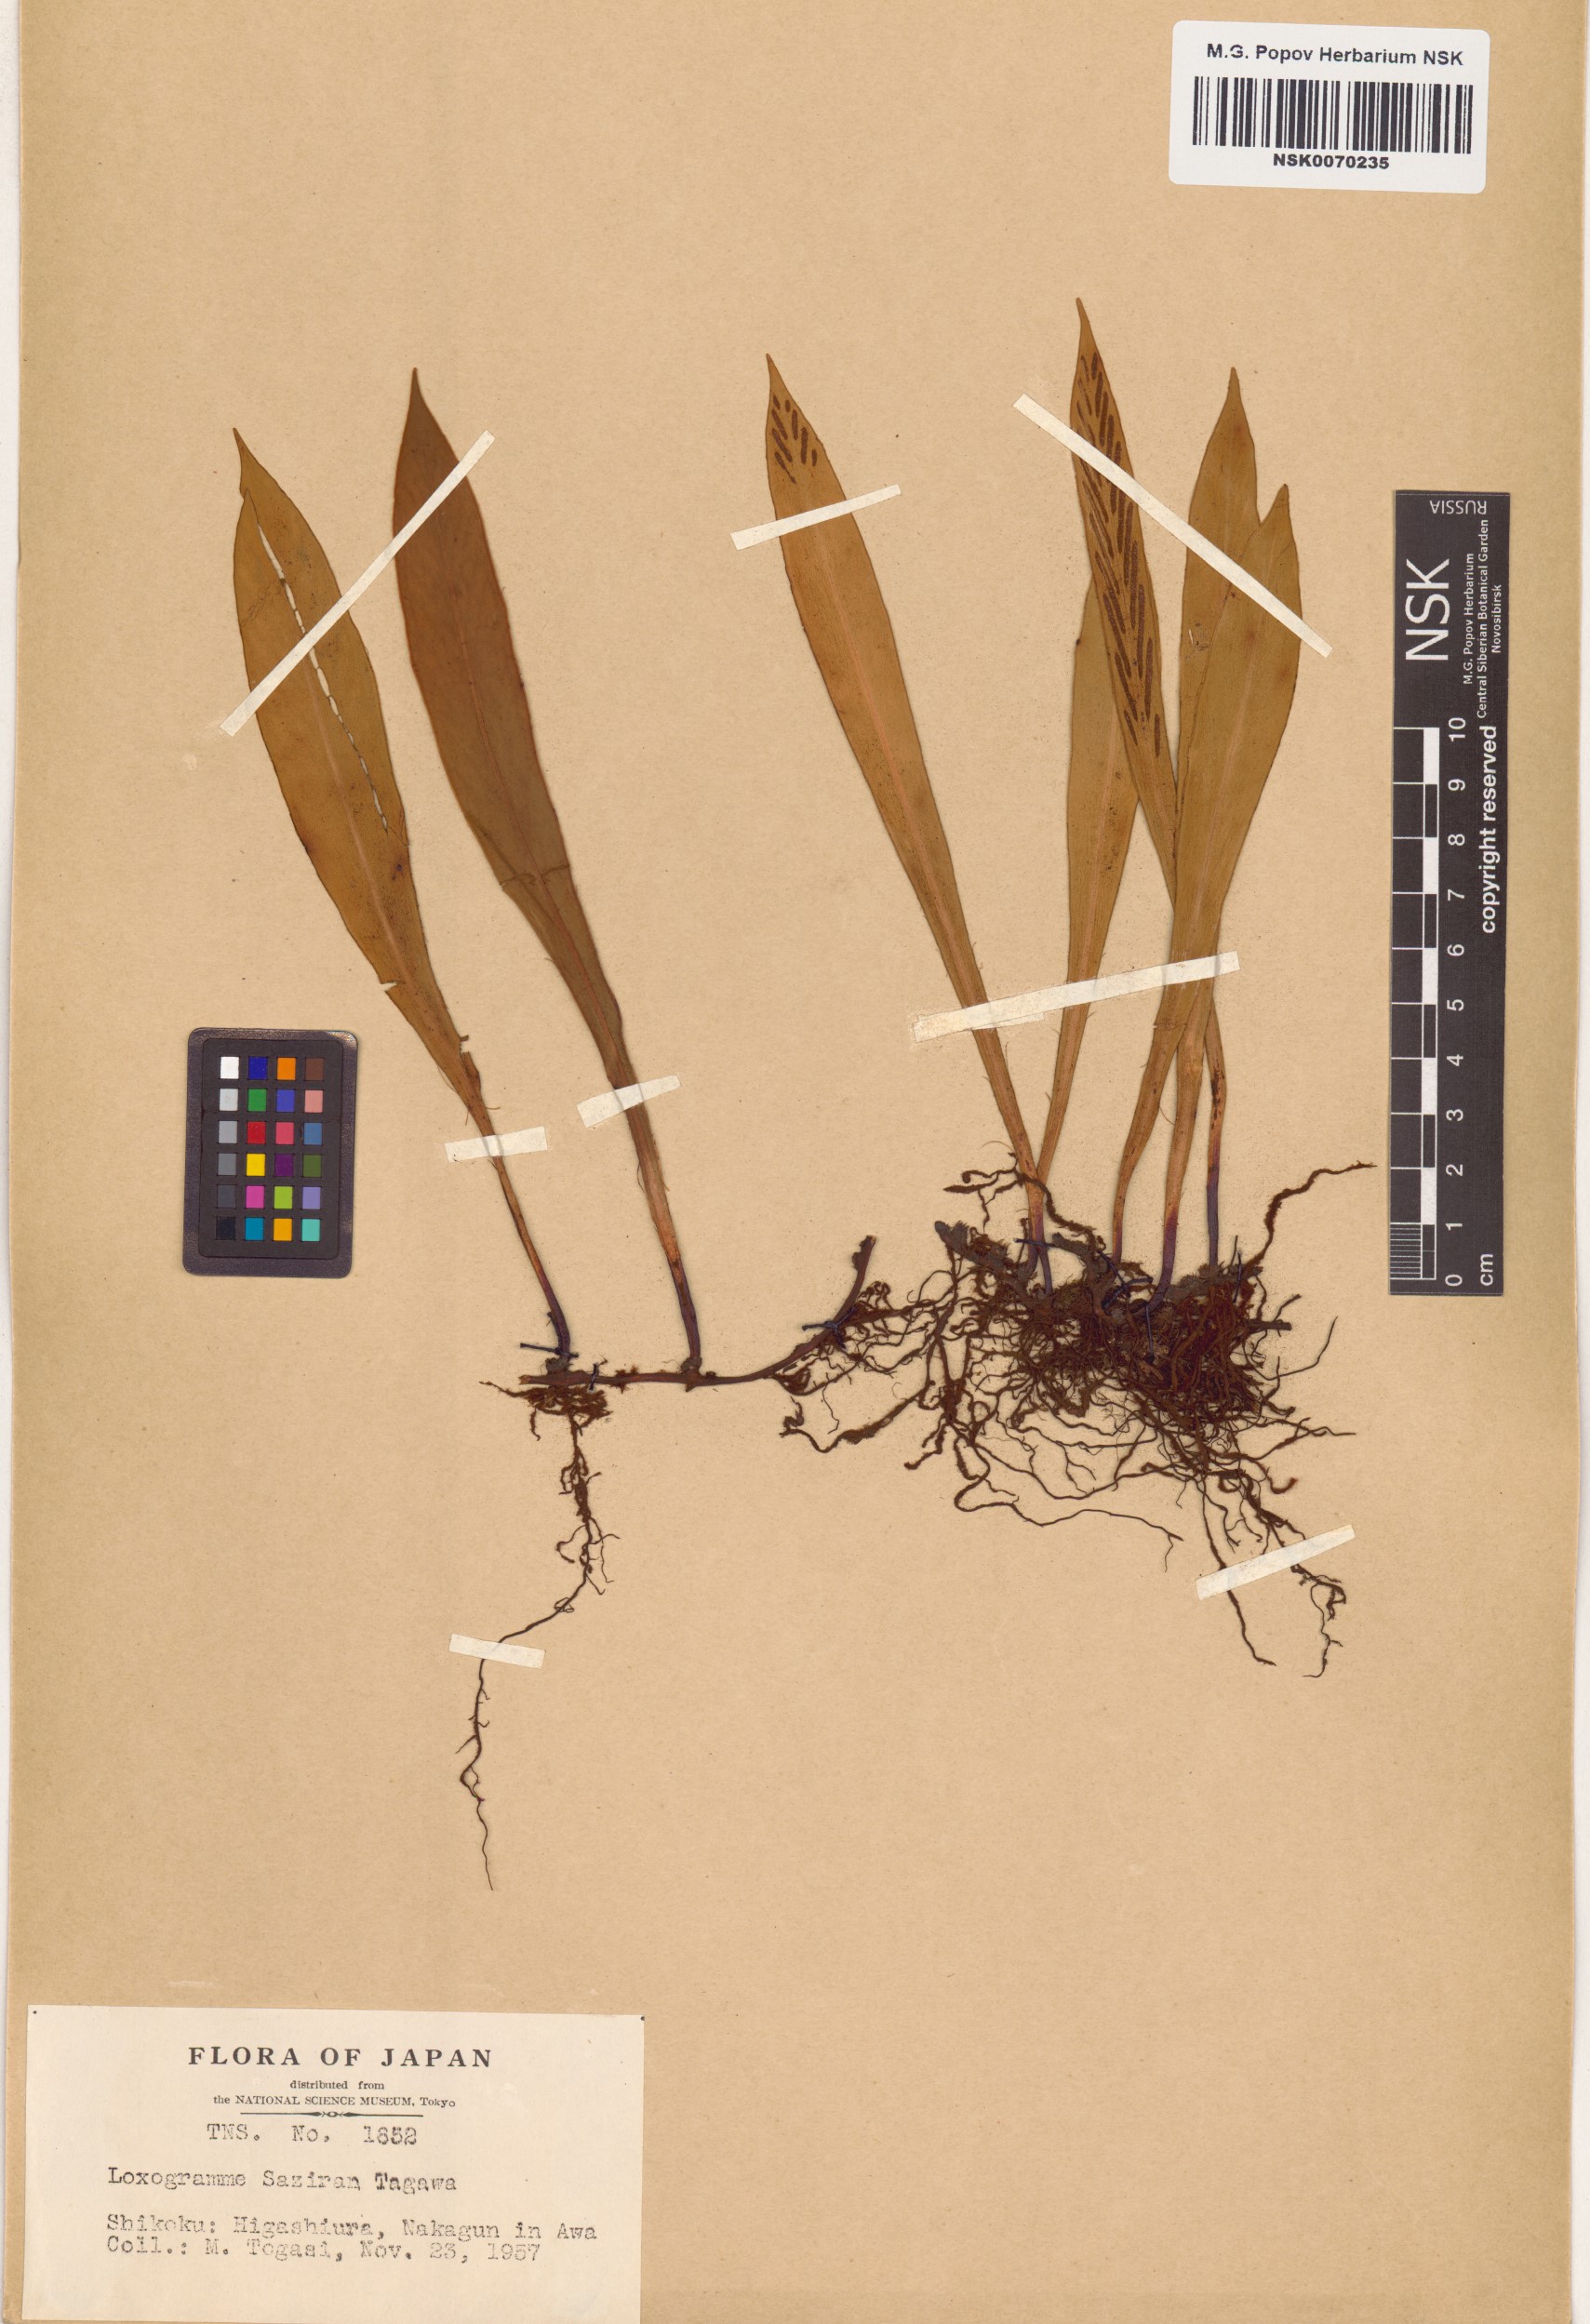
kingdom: Plantae
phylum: Tracheophyta
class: Polypodiopsida
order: Polypodiales
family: Polypodiaceae
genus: Loxogramme
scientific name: Loxogramme cuspidata
